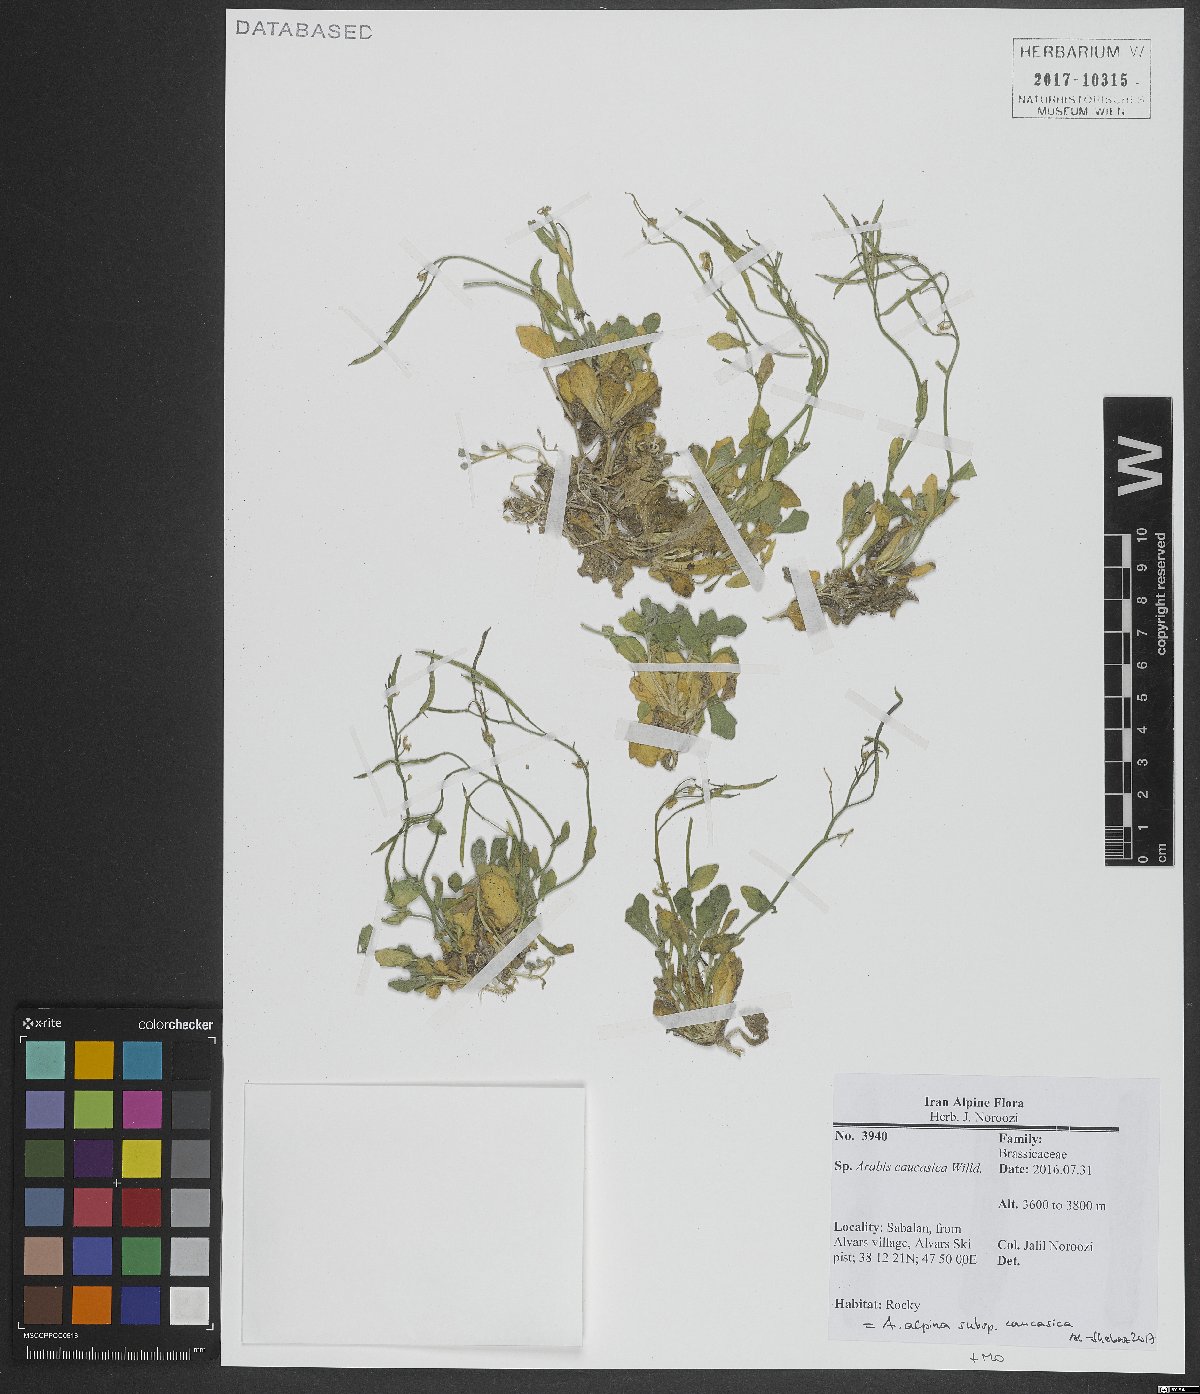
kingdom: Plantae
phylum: Tracheophyta
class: Magnoliopsida
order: Brassicales
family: Brassicaceae
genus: Arabis
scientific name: Arabis caucasica
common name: Gray rockcress
